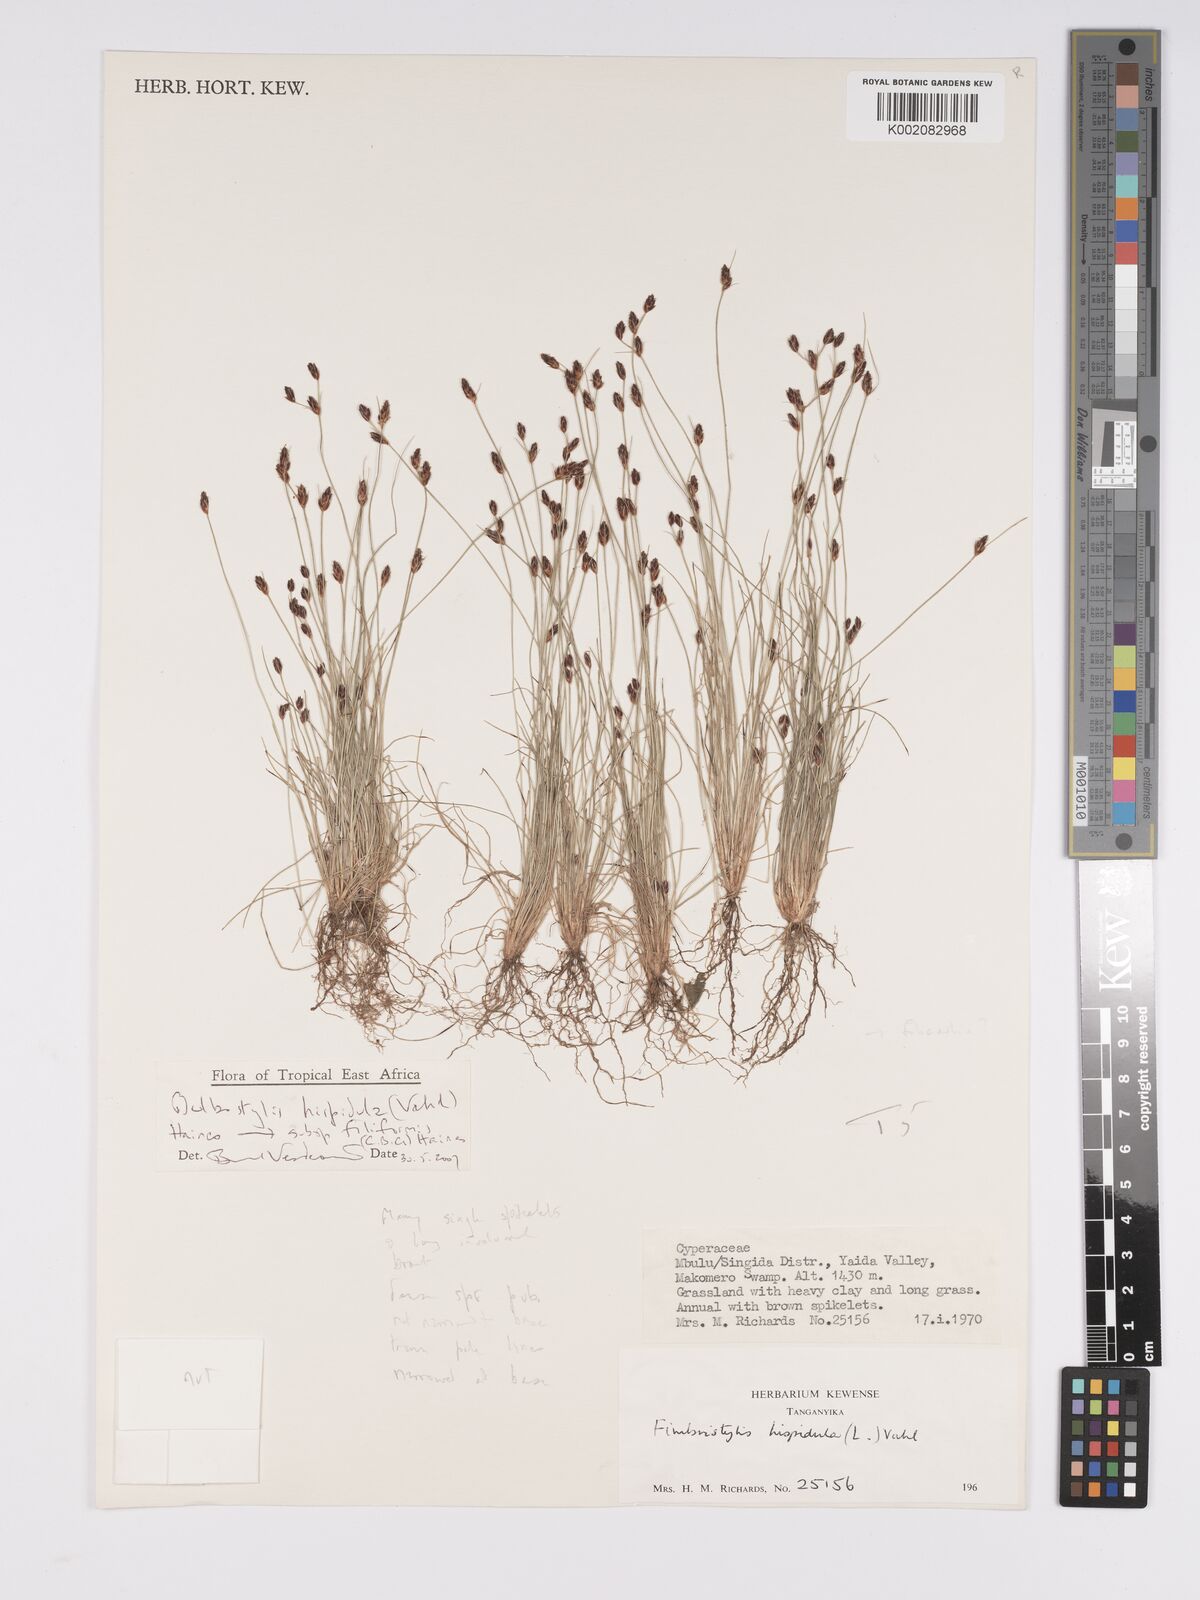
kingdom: Plantae
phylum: Tracheophyta
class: Liliopsida
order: Poales
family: Cyperaceae
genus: Bulbostylis
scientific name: Bulbostylis hispidula
